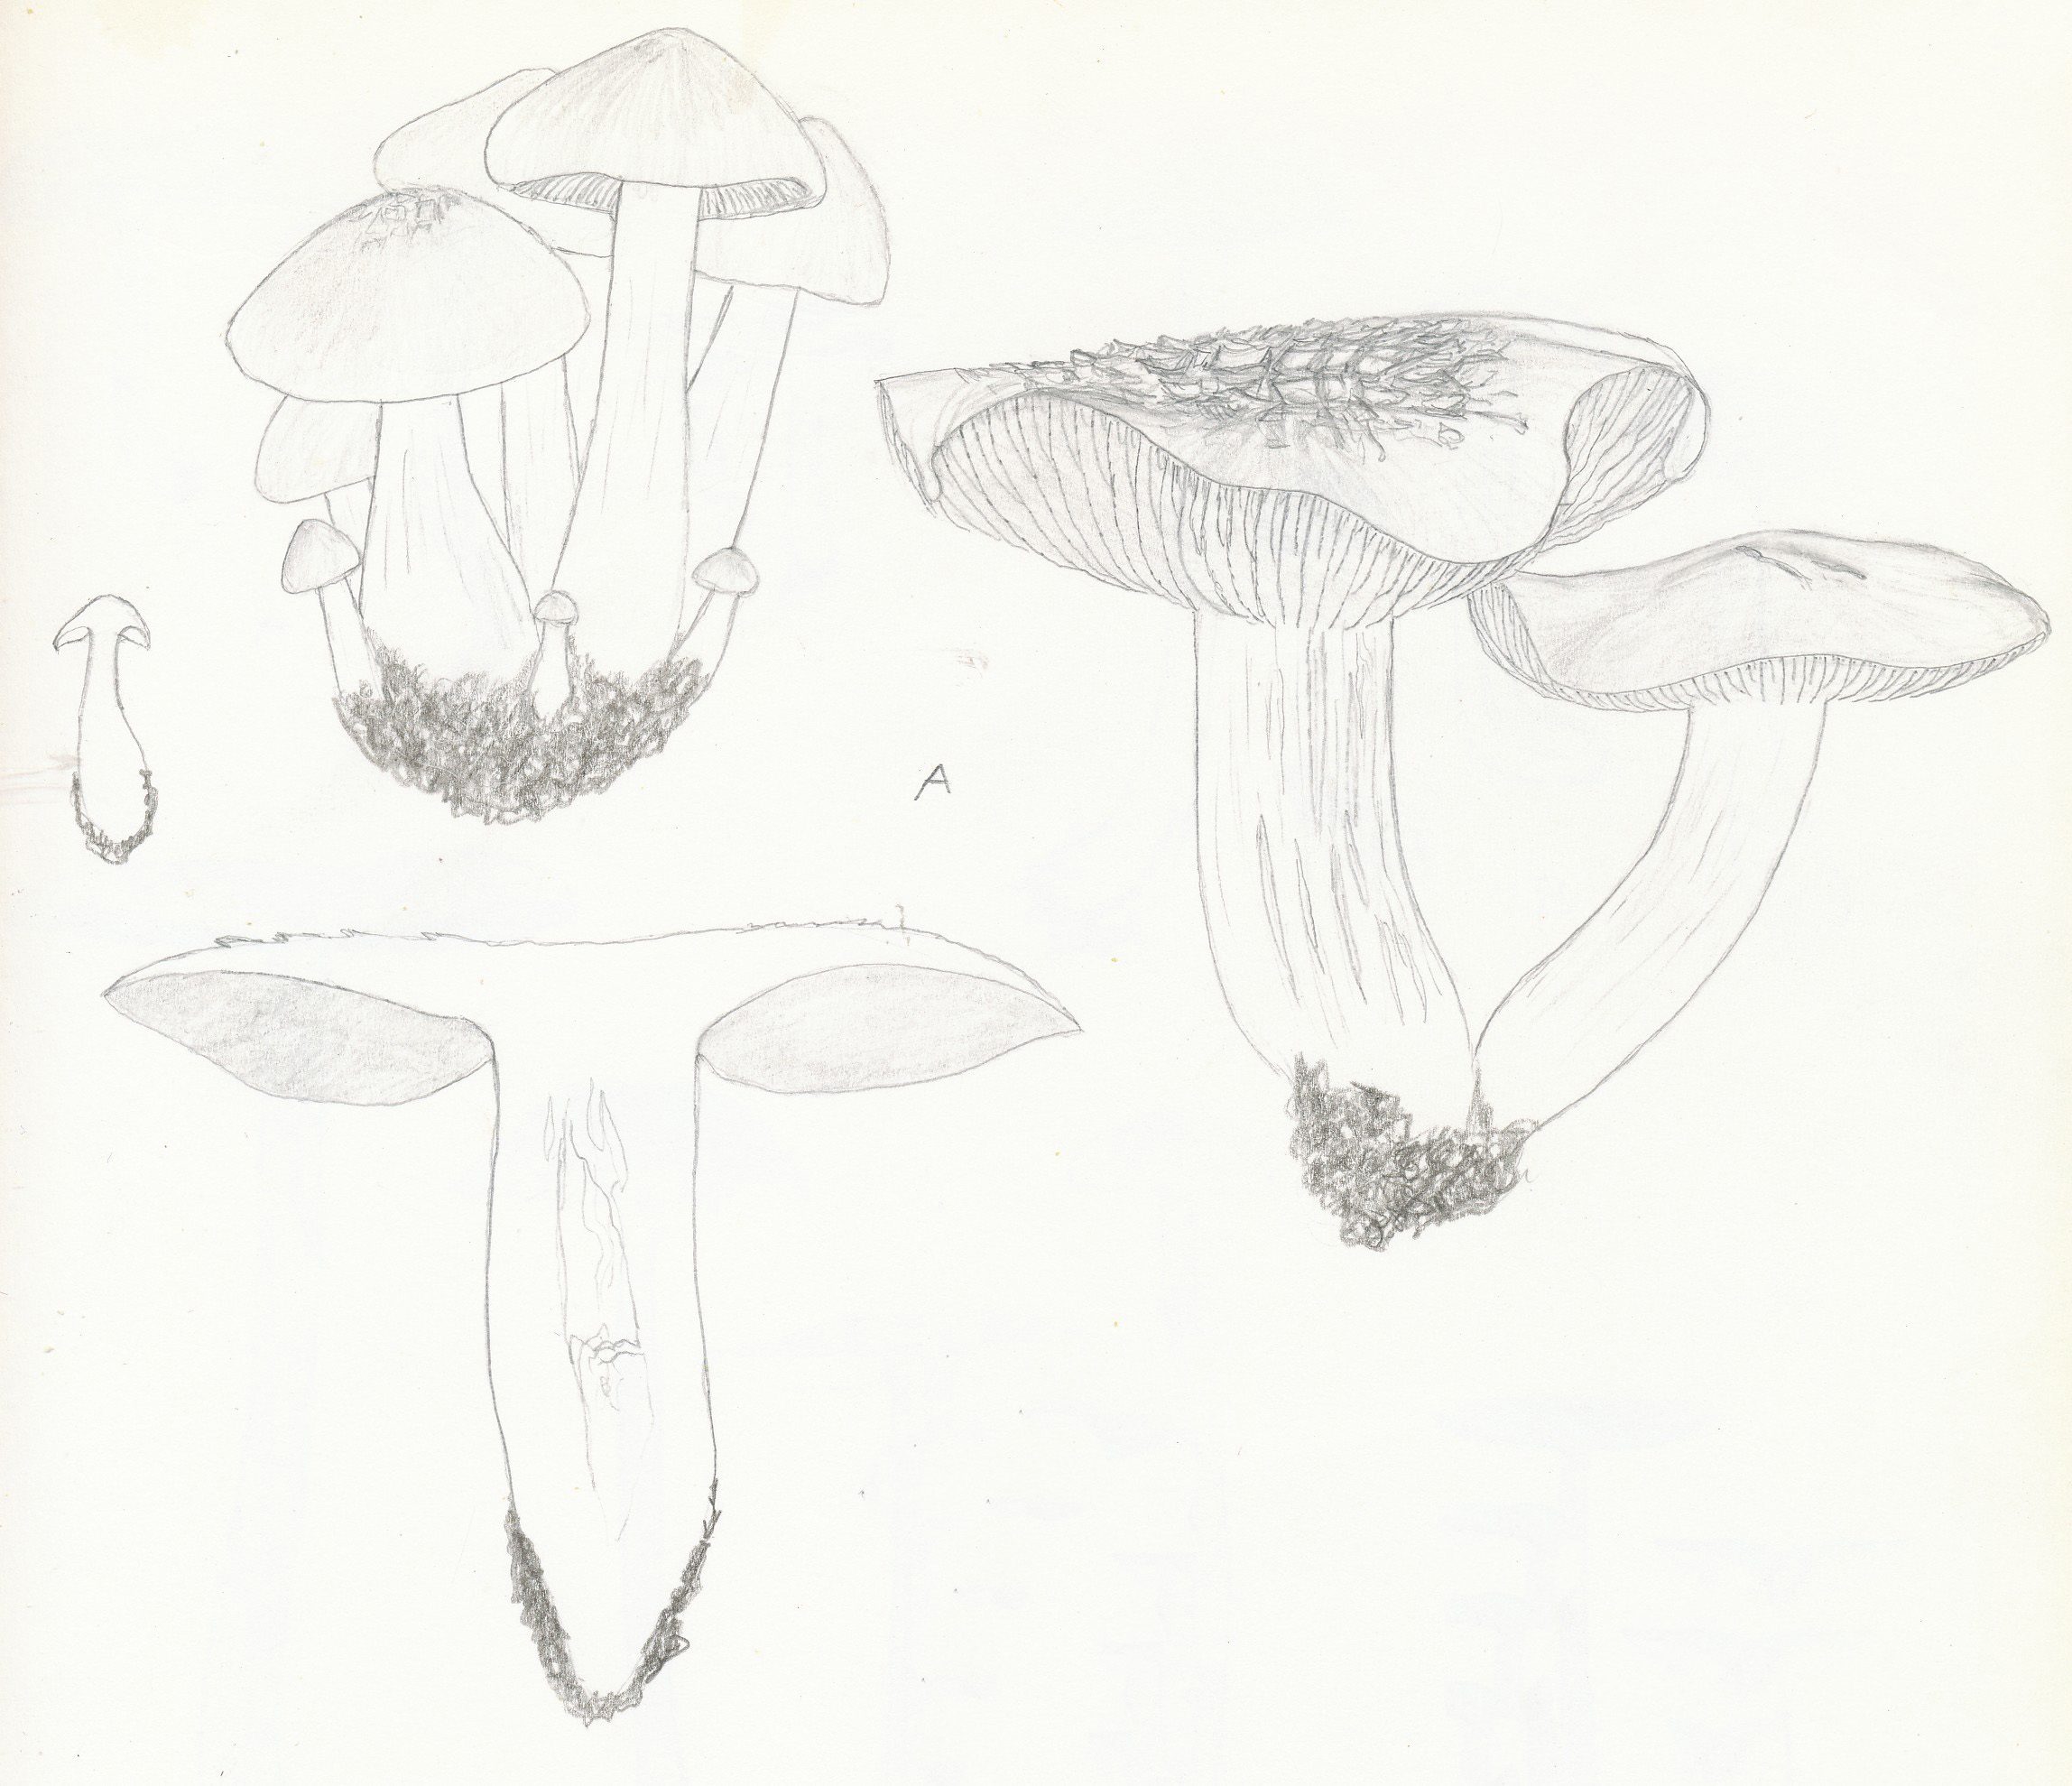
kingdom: Fungi
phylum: Basidiomycota
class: Agaricomycetes
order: Agaricales
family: Entolomataceae
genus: Entoloma
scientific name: Entoloma sepium
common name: slåen-rødblad
